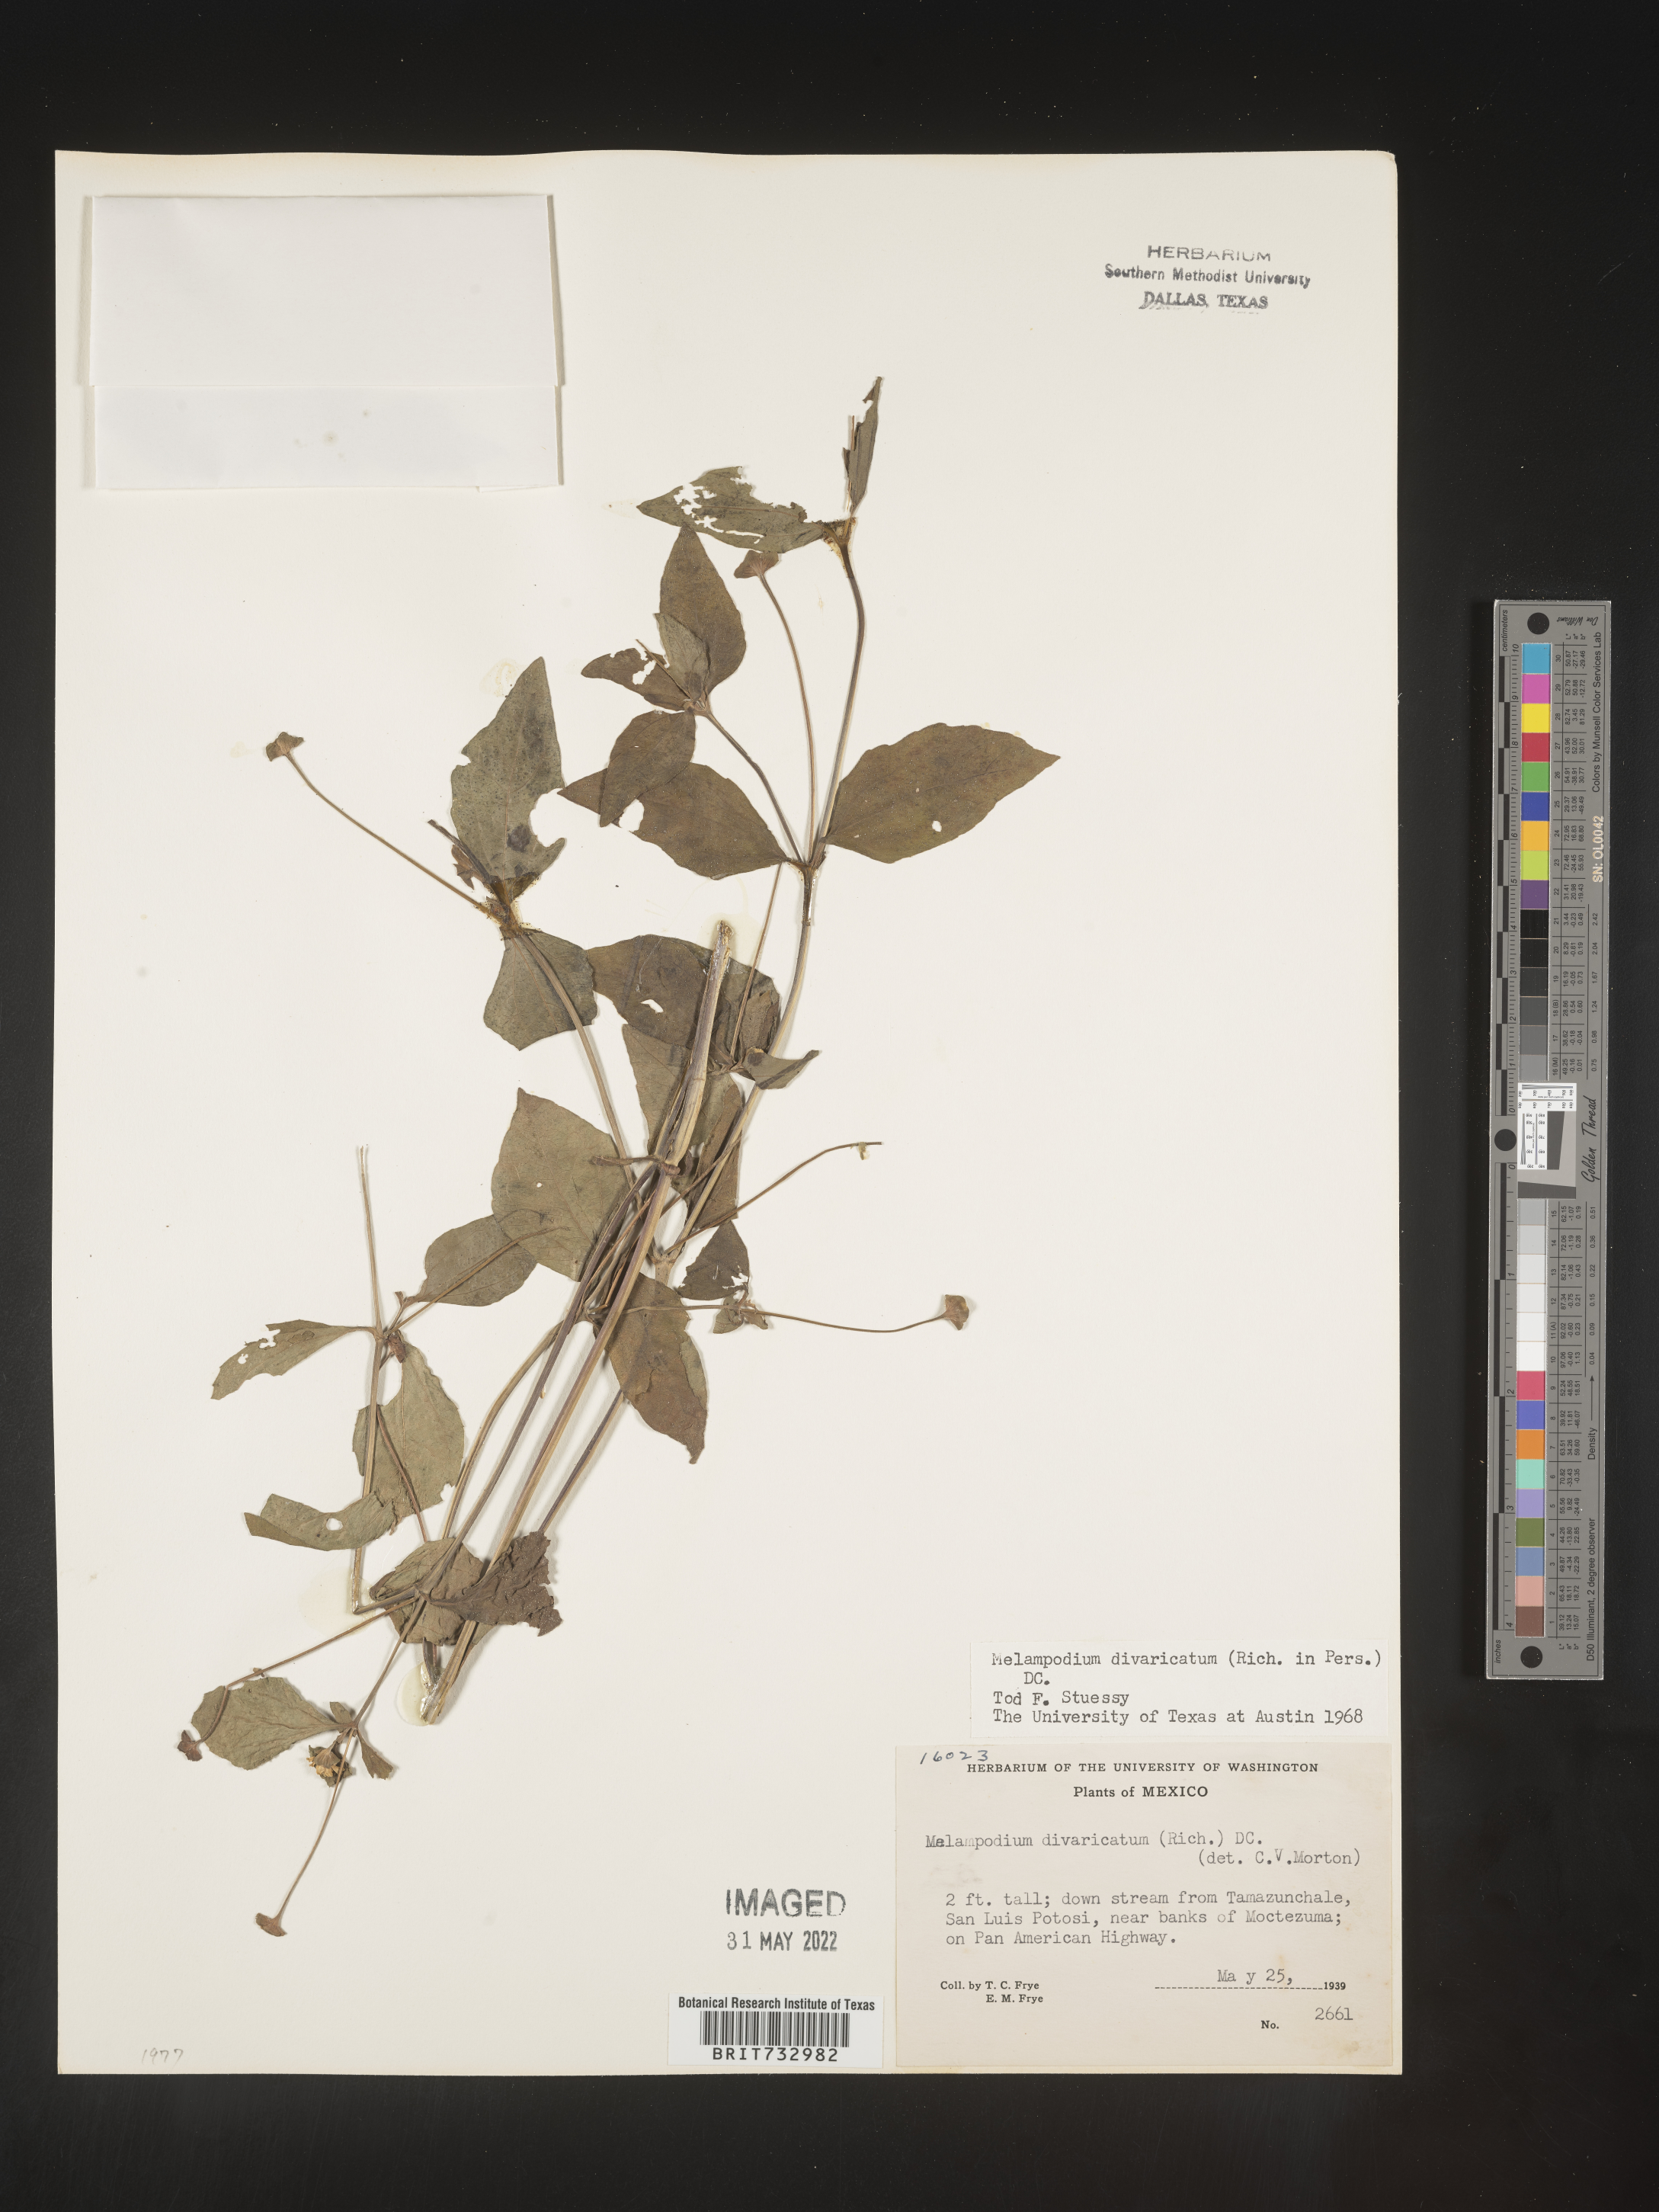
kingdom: Plantae
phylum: Tracheophyta
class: Magnoliopsida
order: Asterales
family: Asteraceae
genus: Melampodium
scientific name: Melampodium
